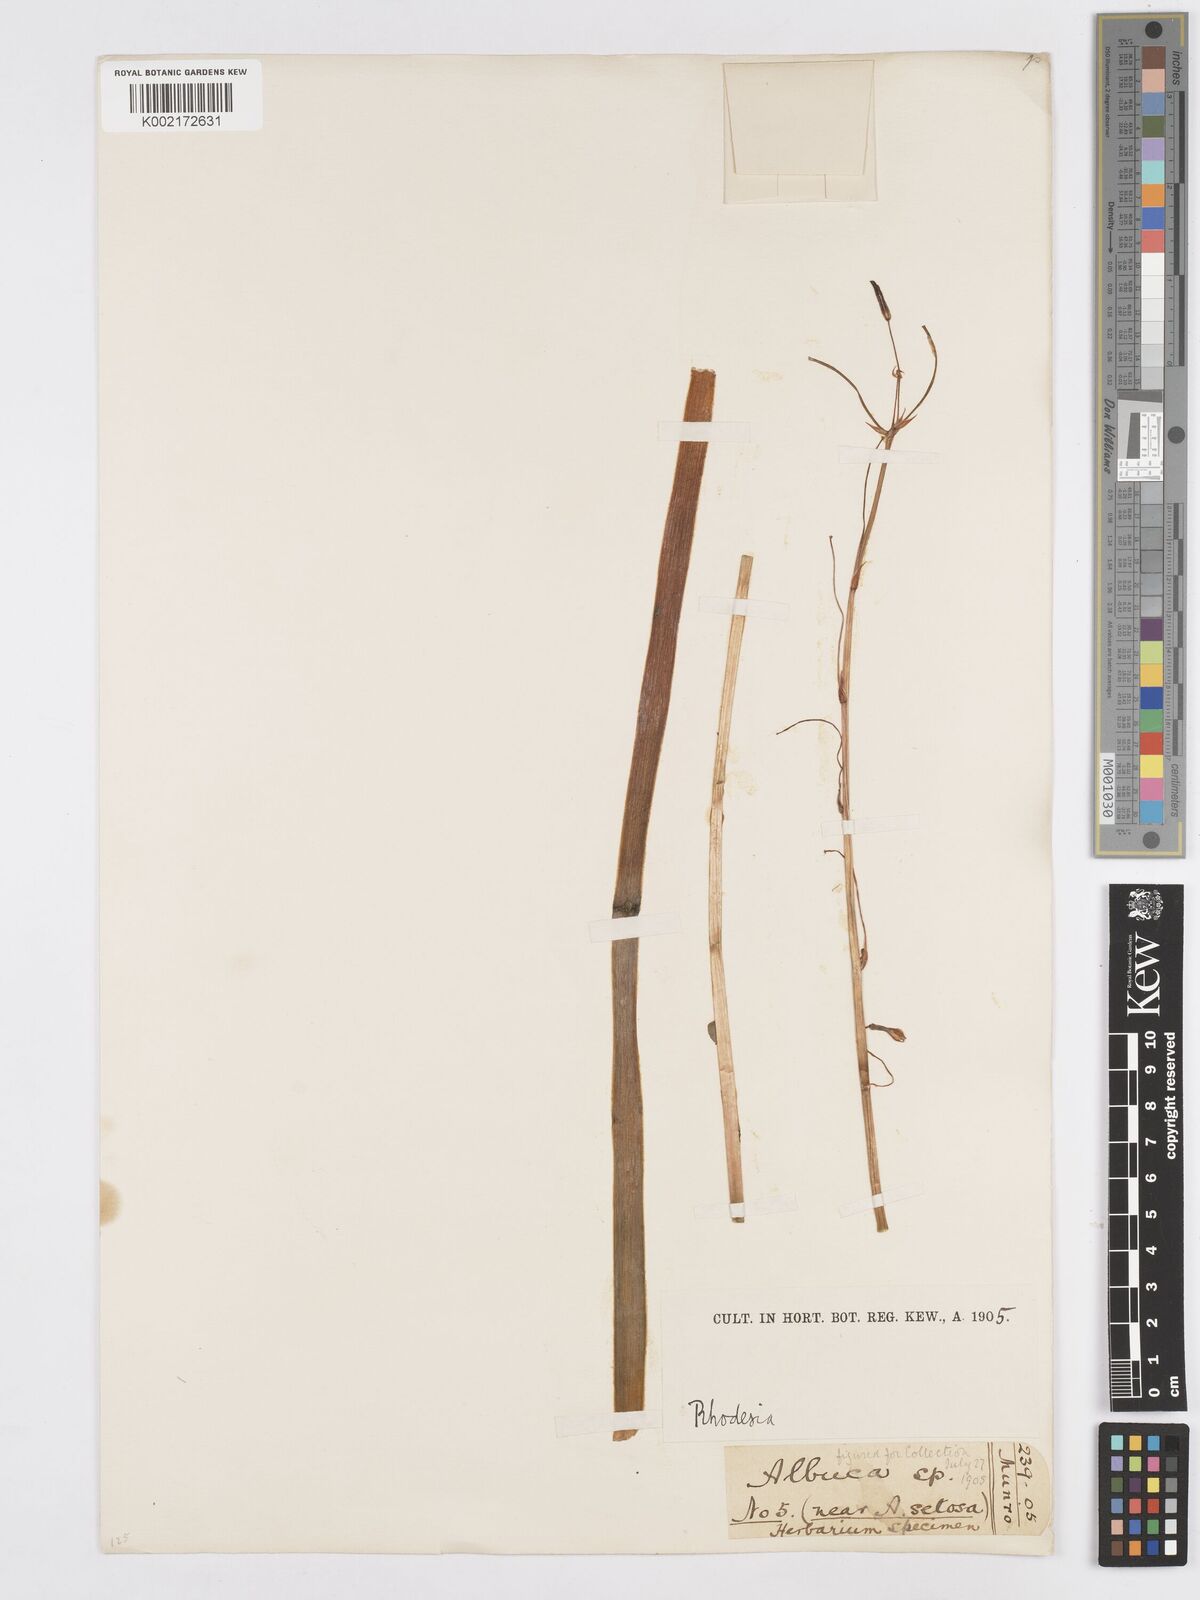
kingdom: Plantae
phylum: Tracheophyta
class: Liliopsida
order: Asparagales
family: Asparagaceae
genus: Albuca
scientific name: Albuca kirkii
